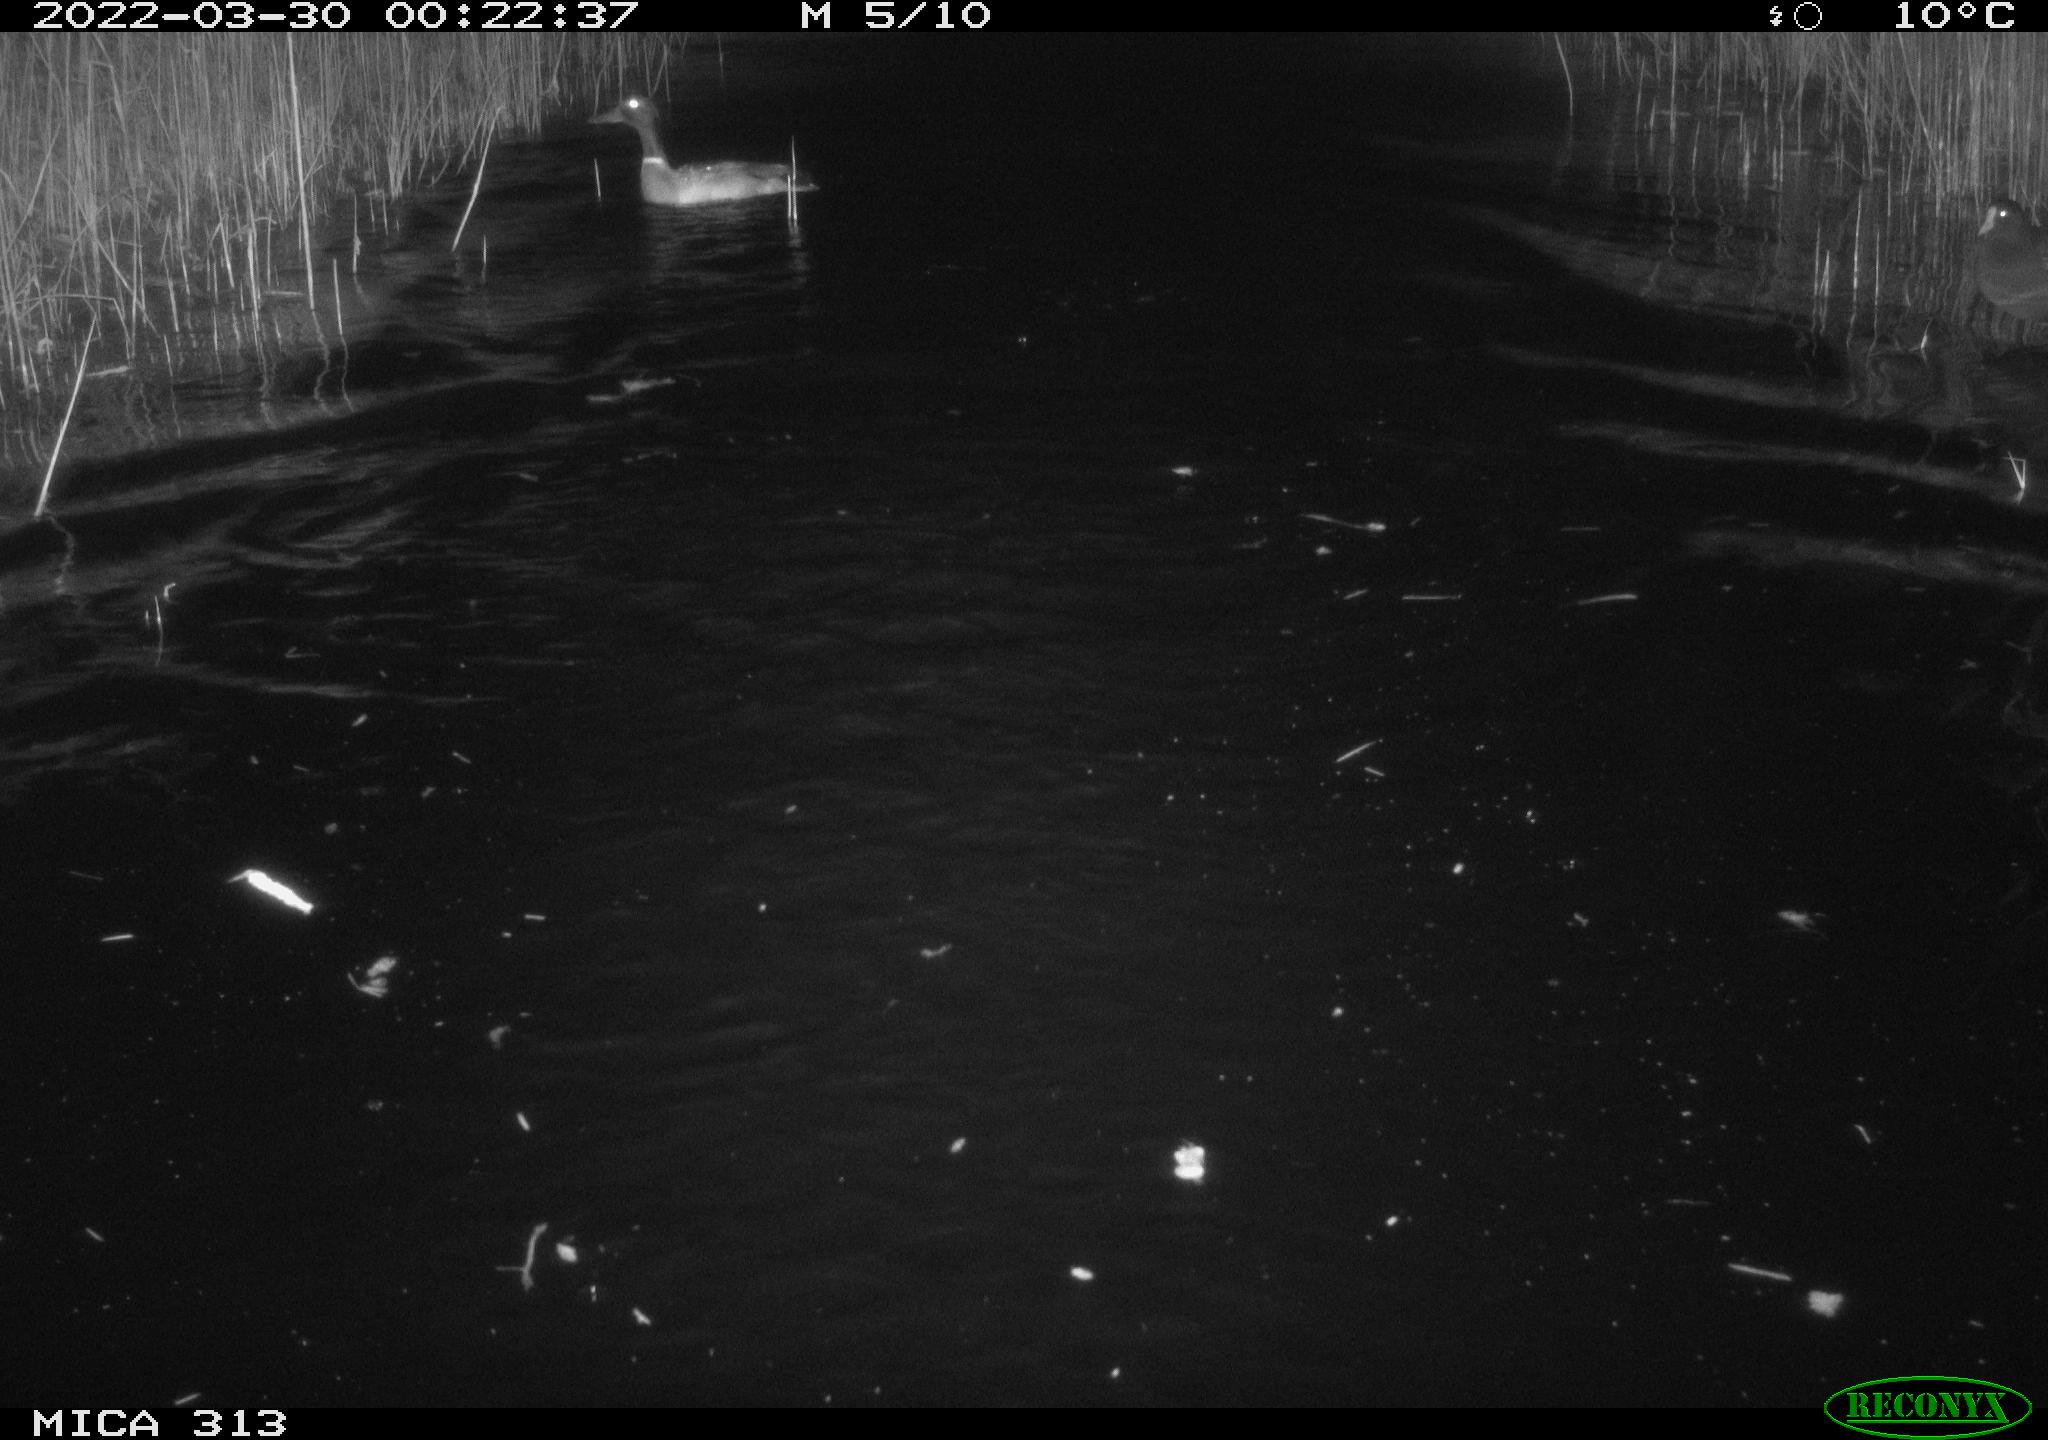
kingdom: Animalia
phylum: Chordata
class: Aves
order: Gruiformes
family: Rallidae
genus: Gallinula
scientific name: Gallinula chloropus
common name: Common moorhen
